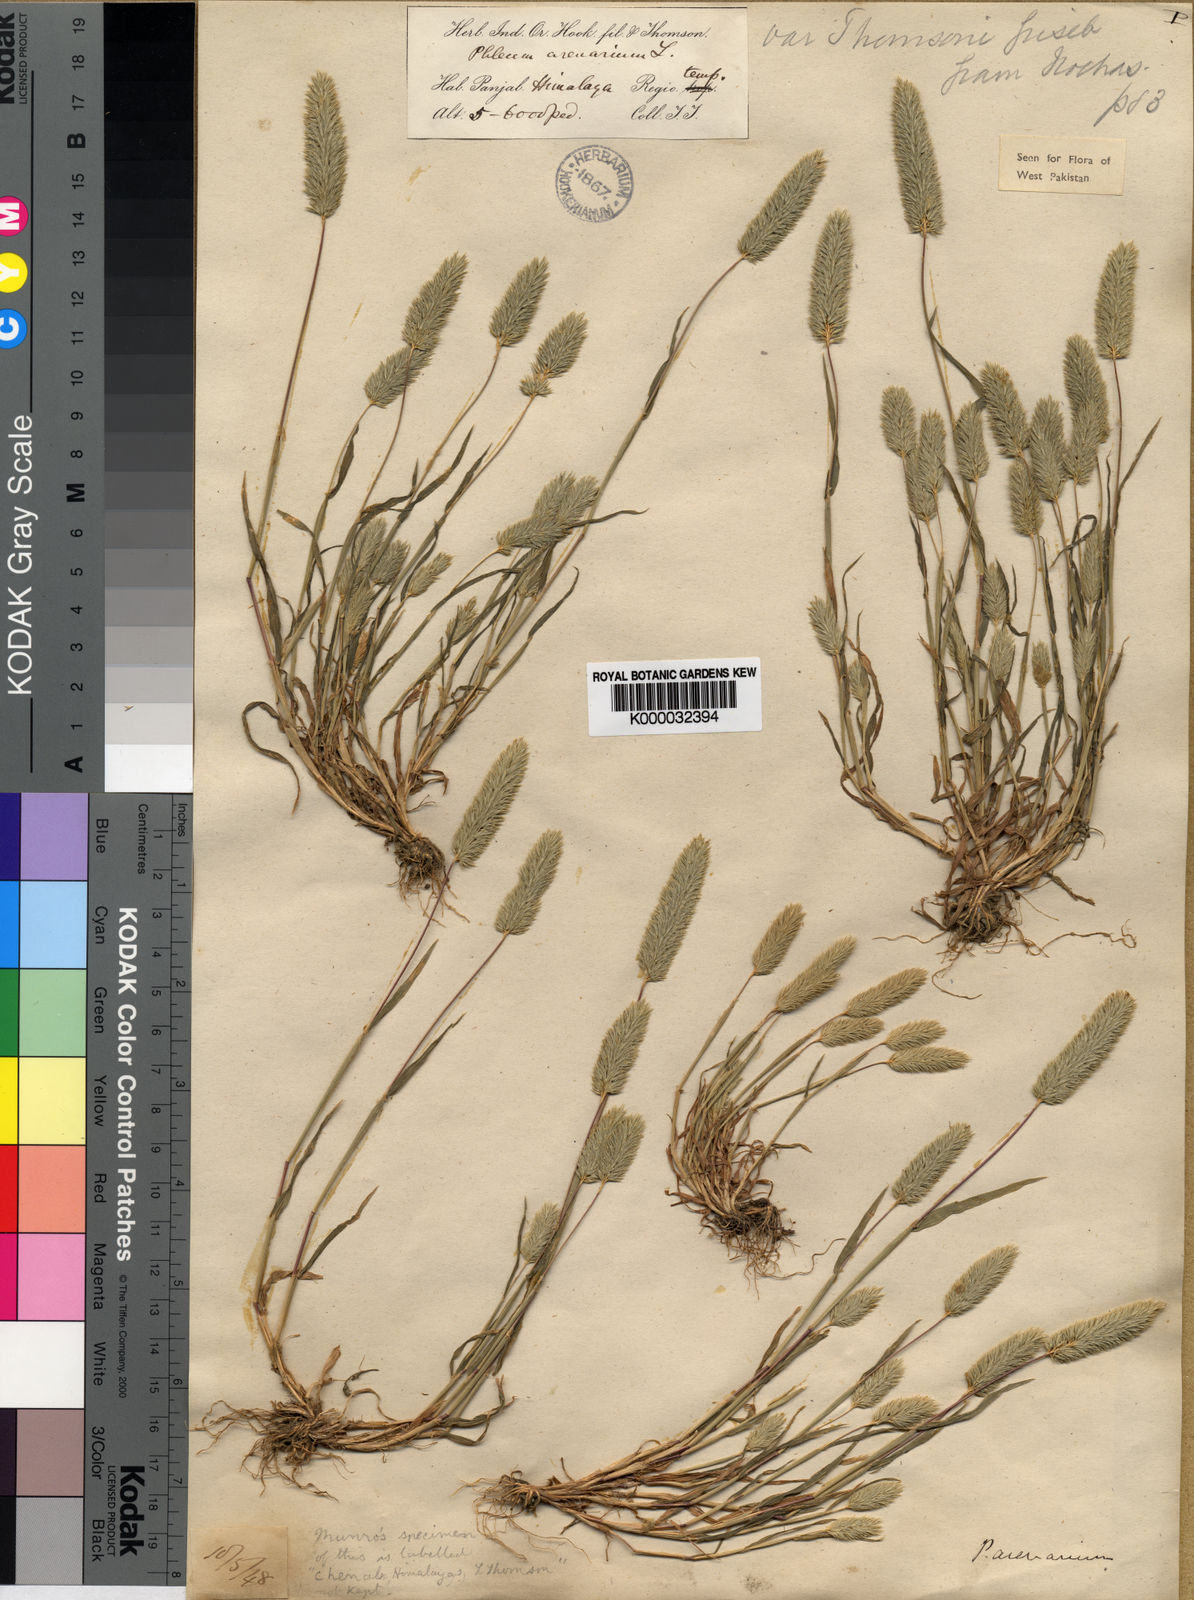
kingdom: Plantae
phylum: Tracheophyta
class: Liliopsida
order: Poales
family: Poaceae
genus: Phleum
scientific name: Phleum himalaicum
